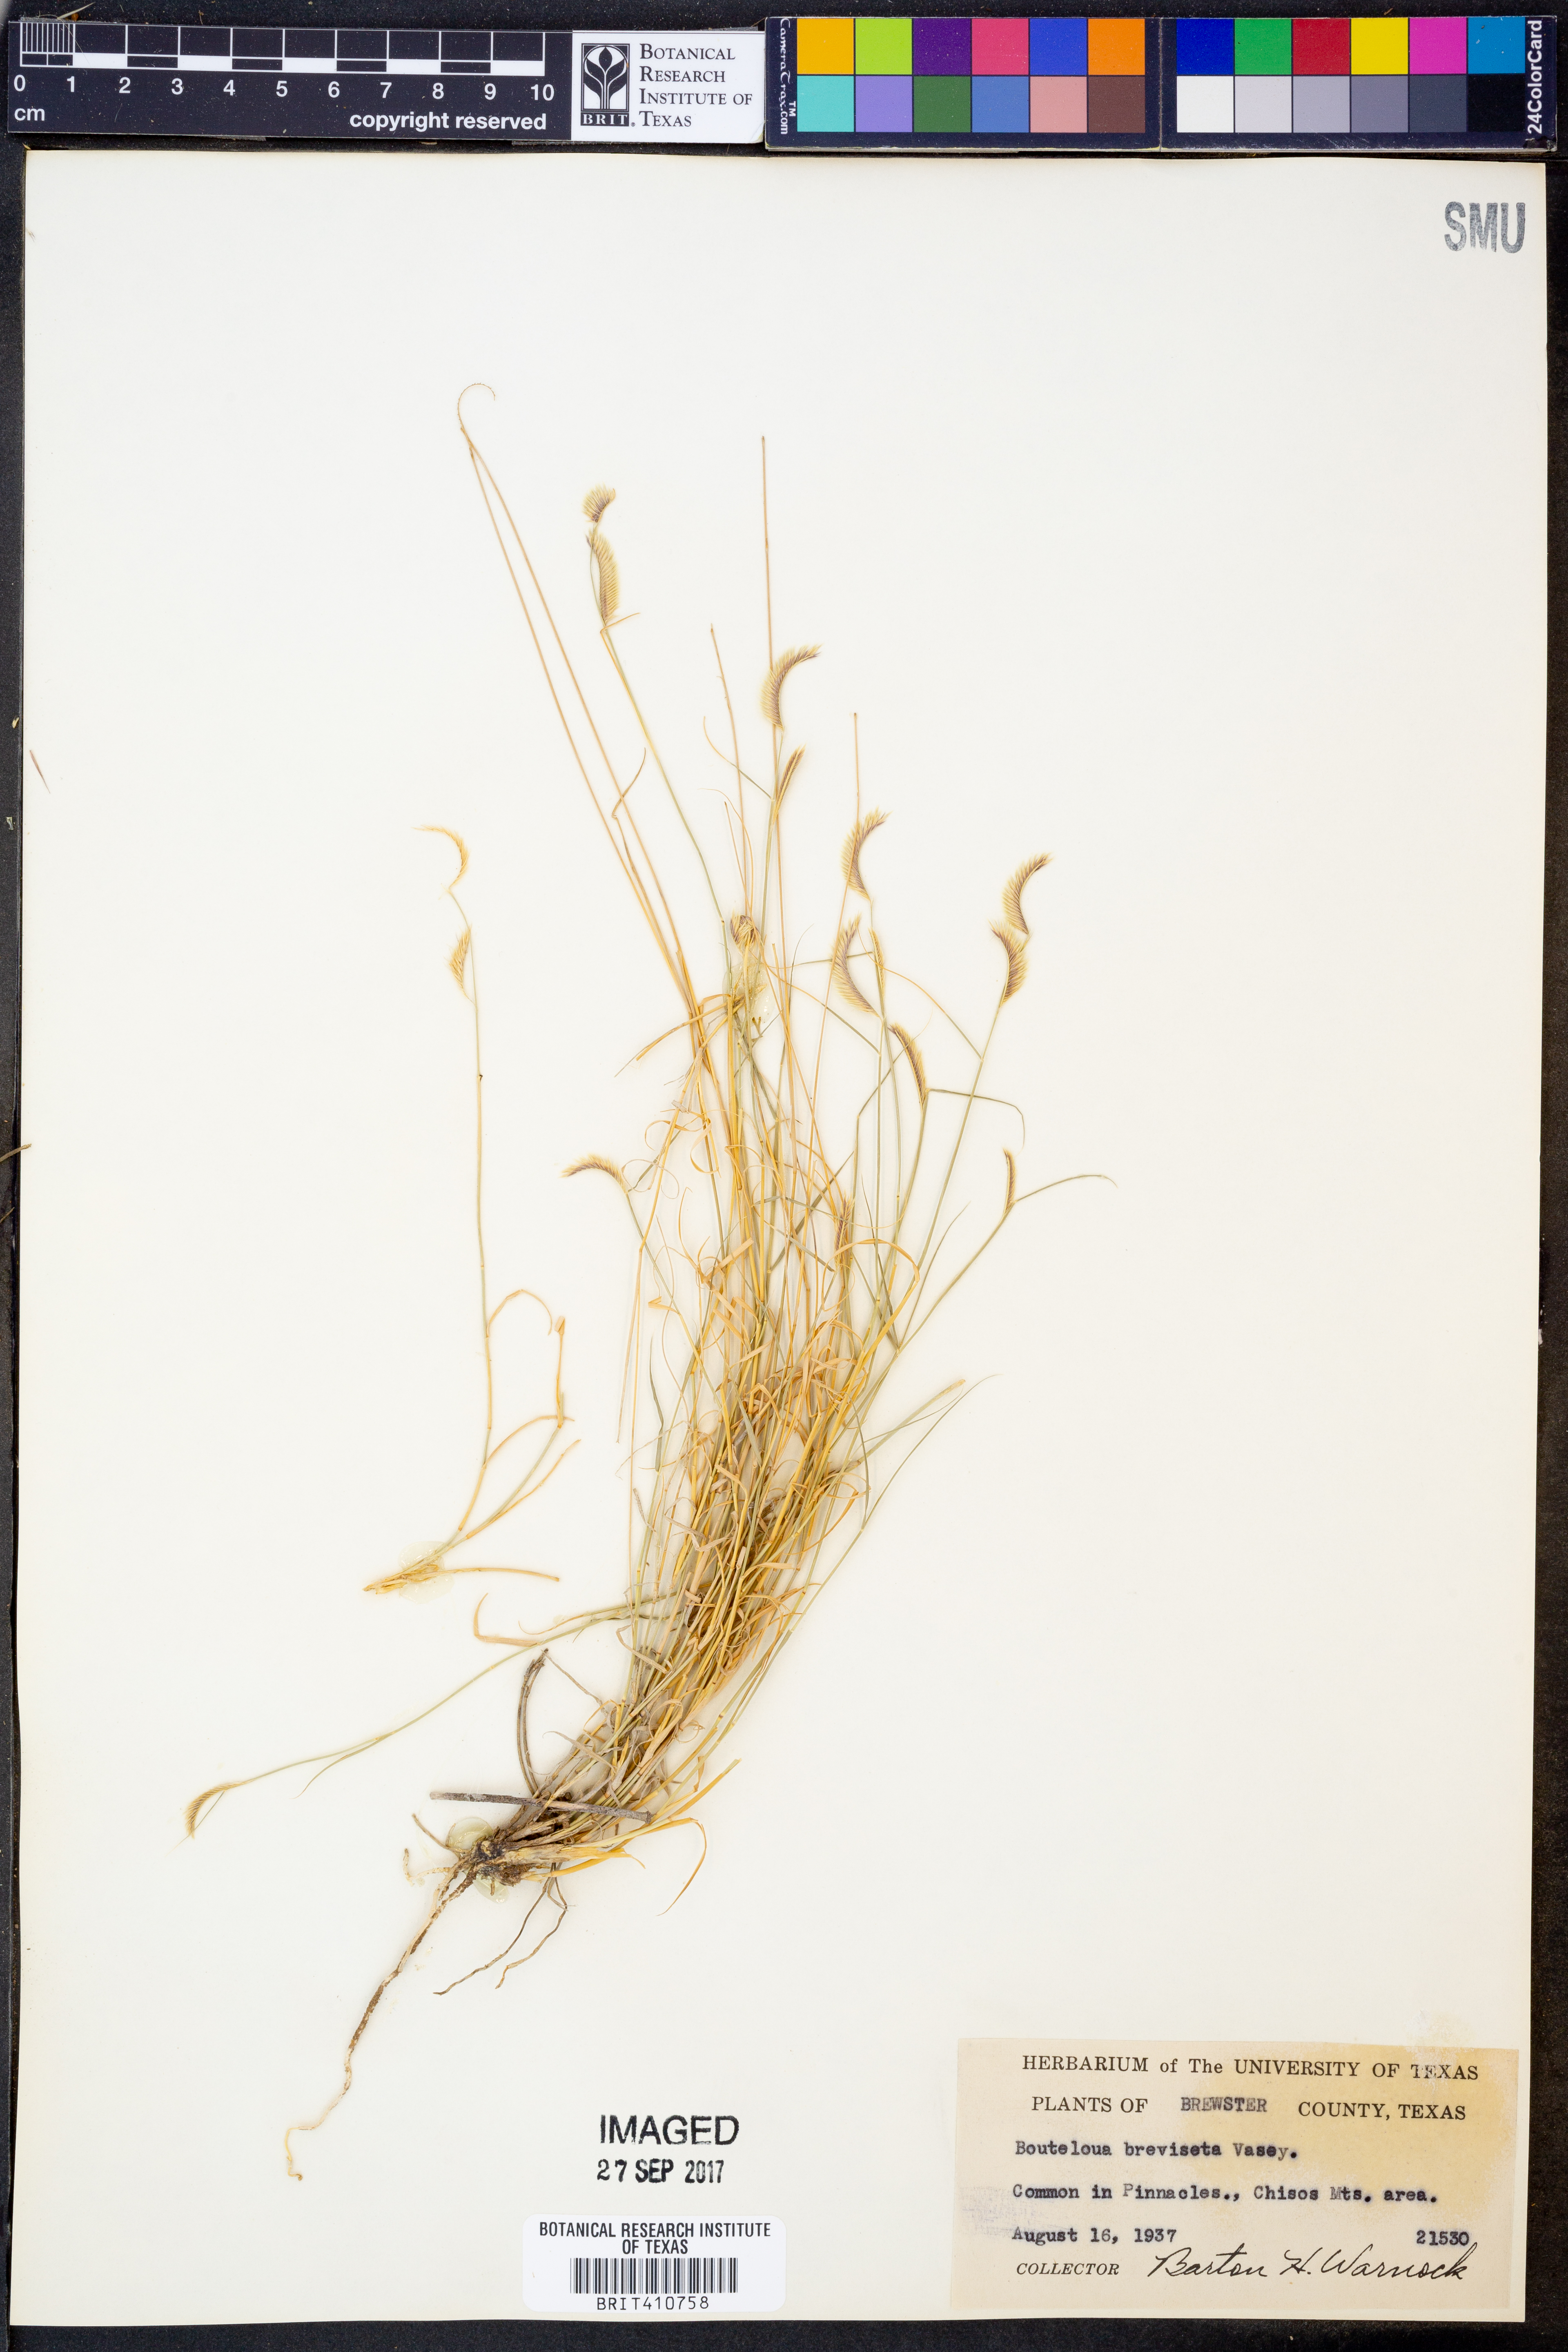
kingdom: Plantae
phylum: Tracheophyta
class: Liliopsida
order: Poales
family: Poaceae
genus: Bouteloua
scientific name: Bouteloua breviseta
